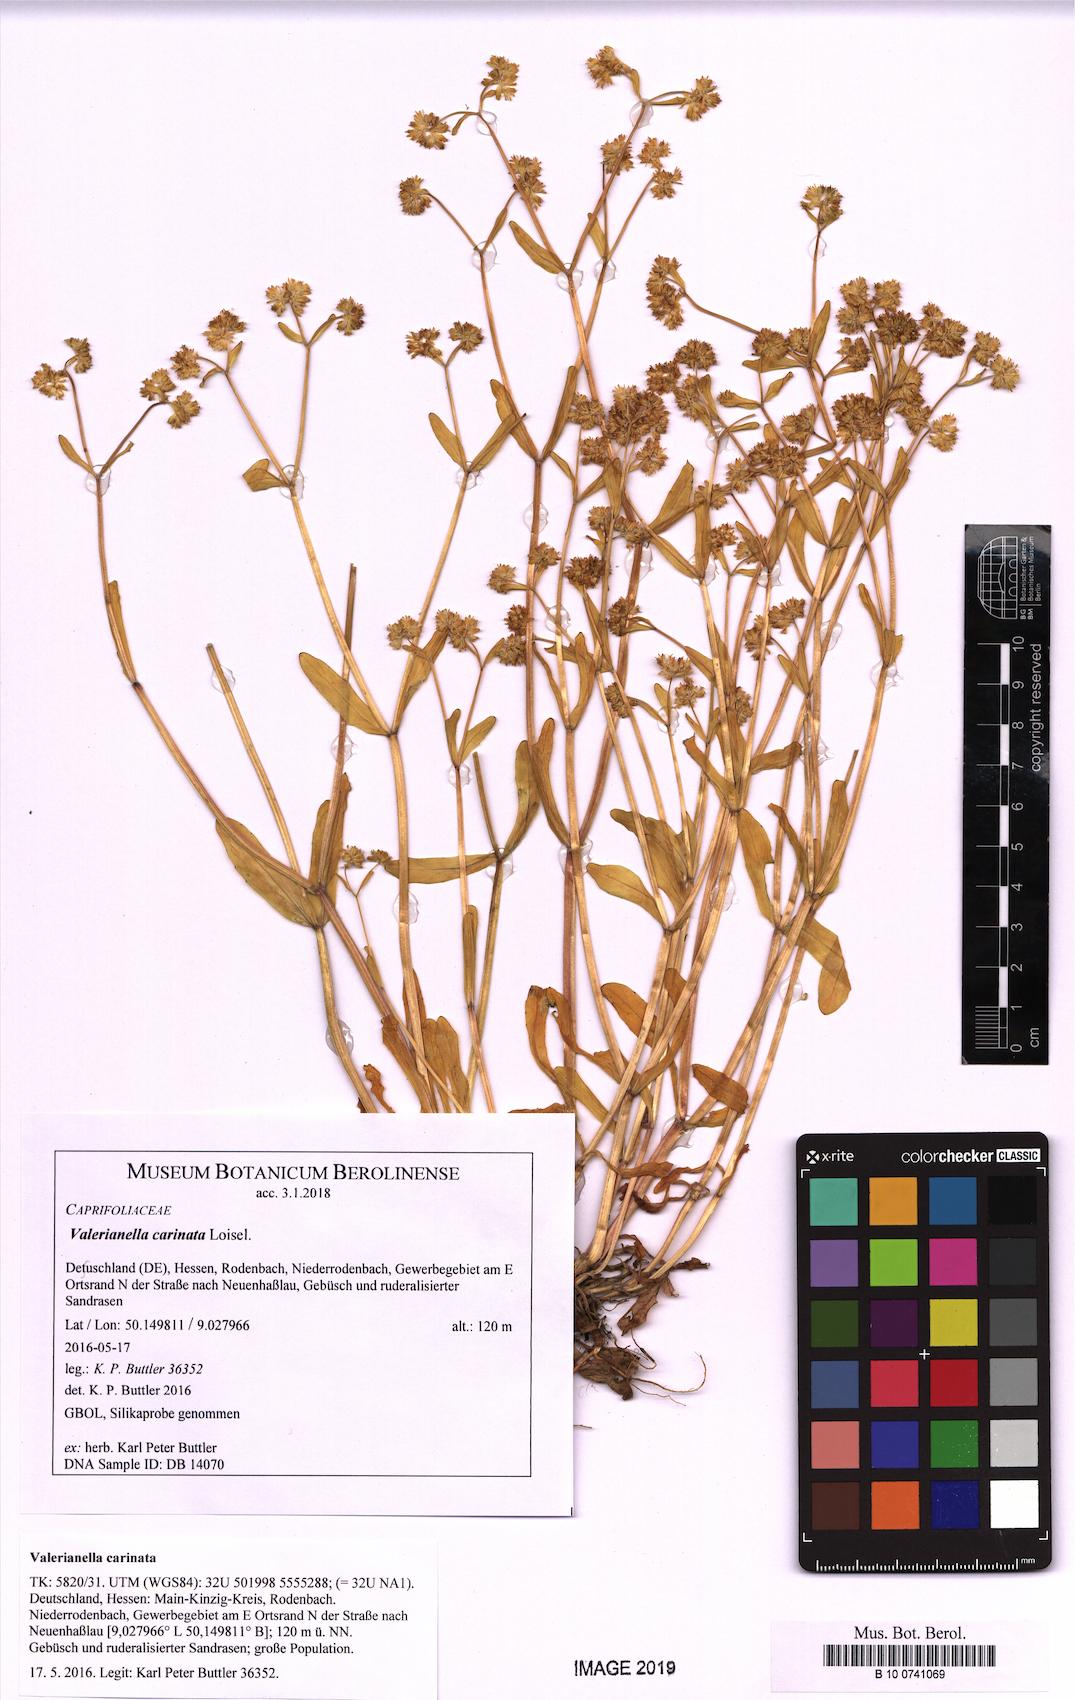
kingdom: Plantae
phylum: Tracheophyta
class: Magnoliopsida
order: Dipsacales
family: Caprifoliaceae
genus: Valerianella
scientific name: Valerianella carinata
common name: Keeled-fruited cornsalad
